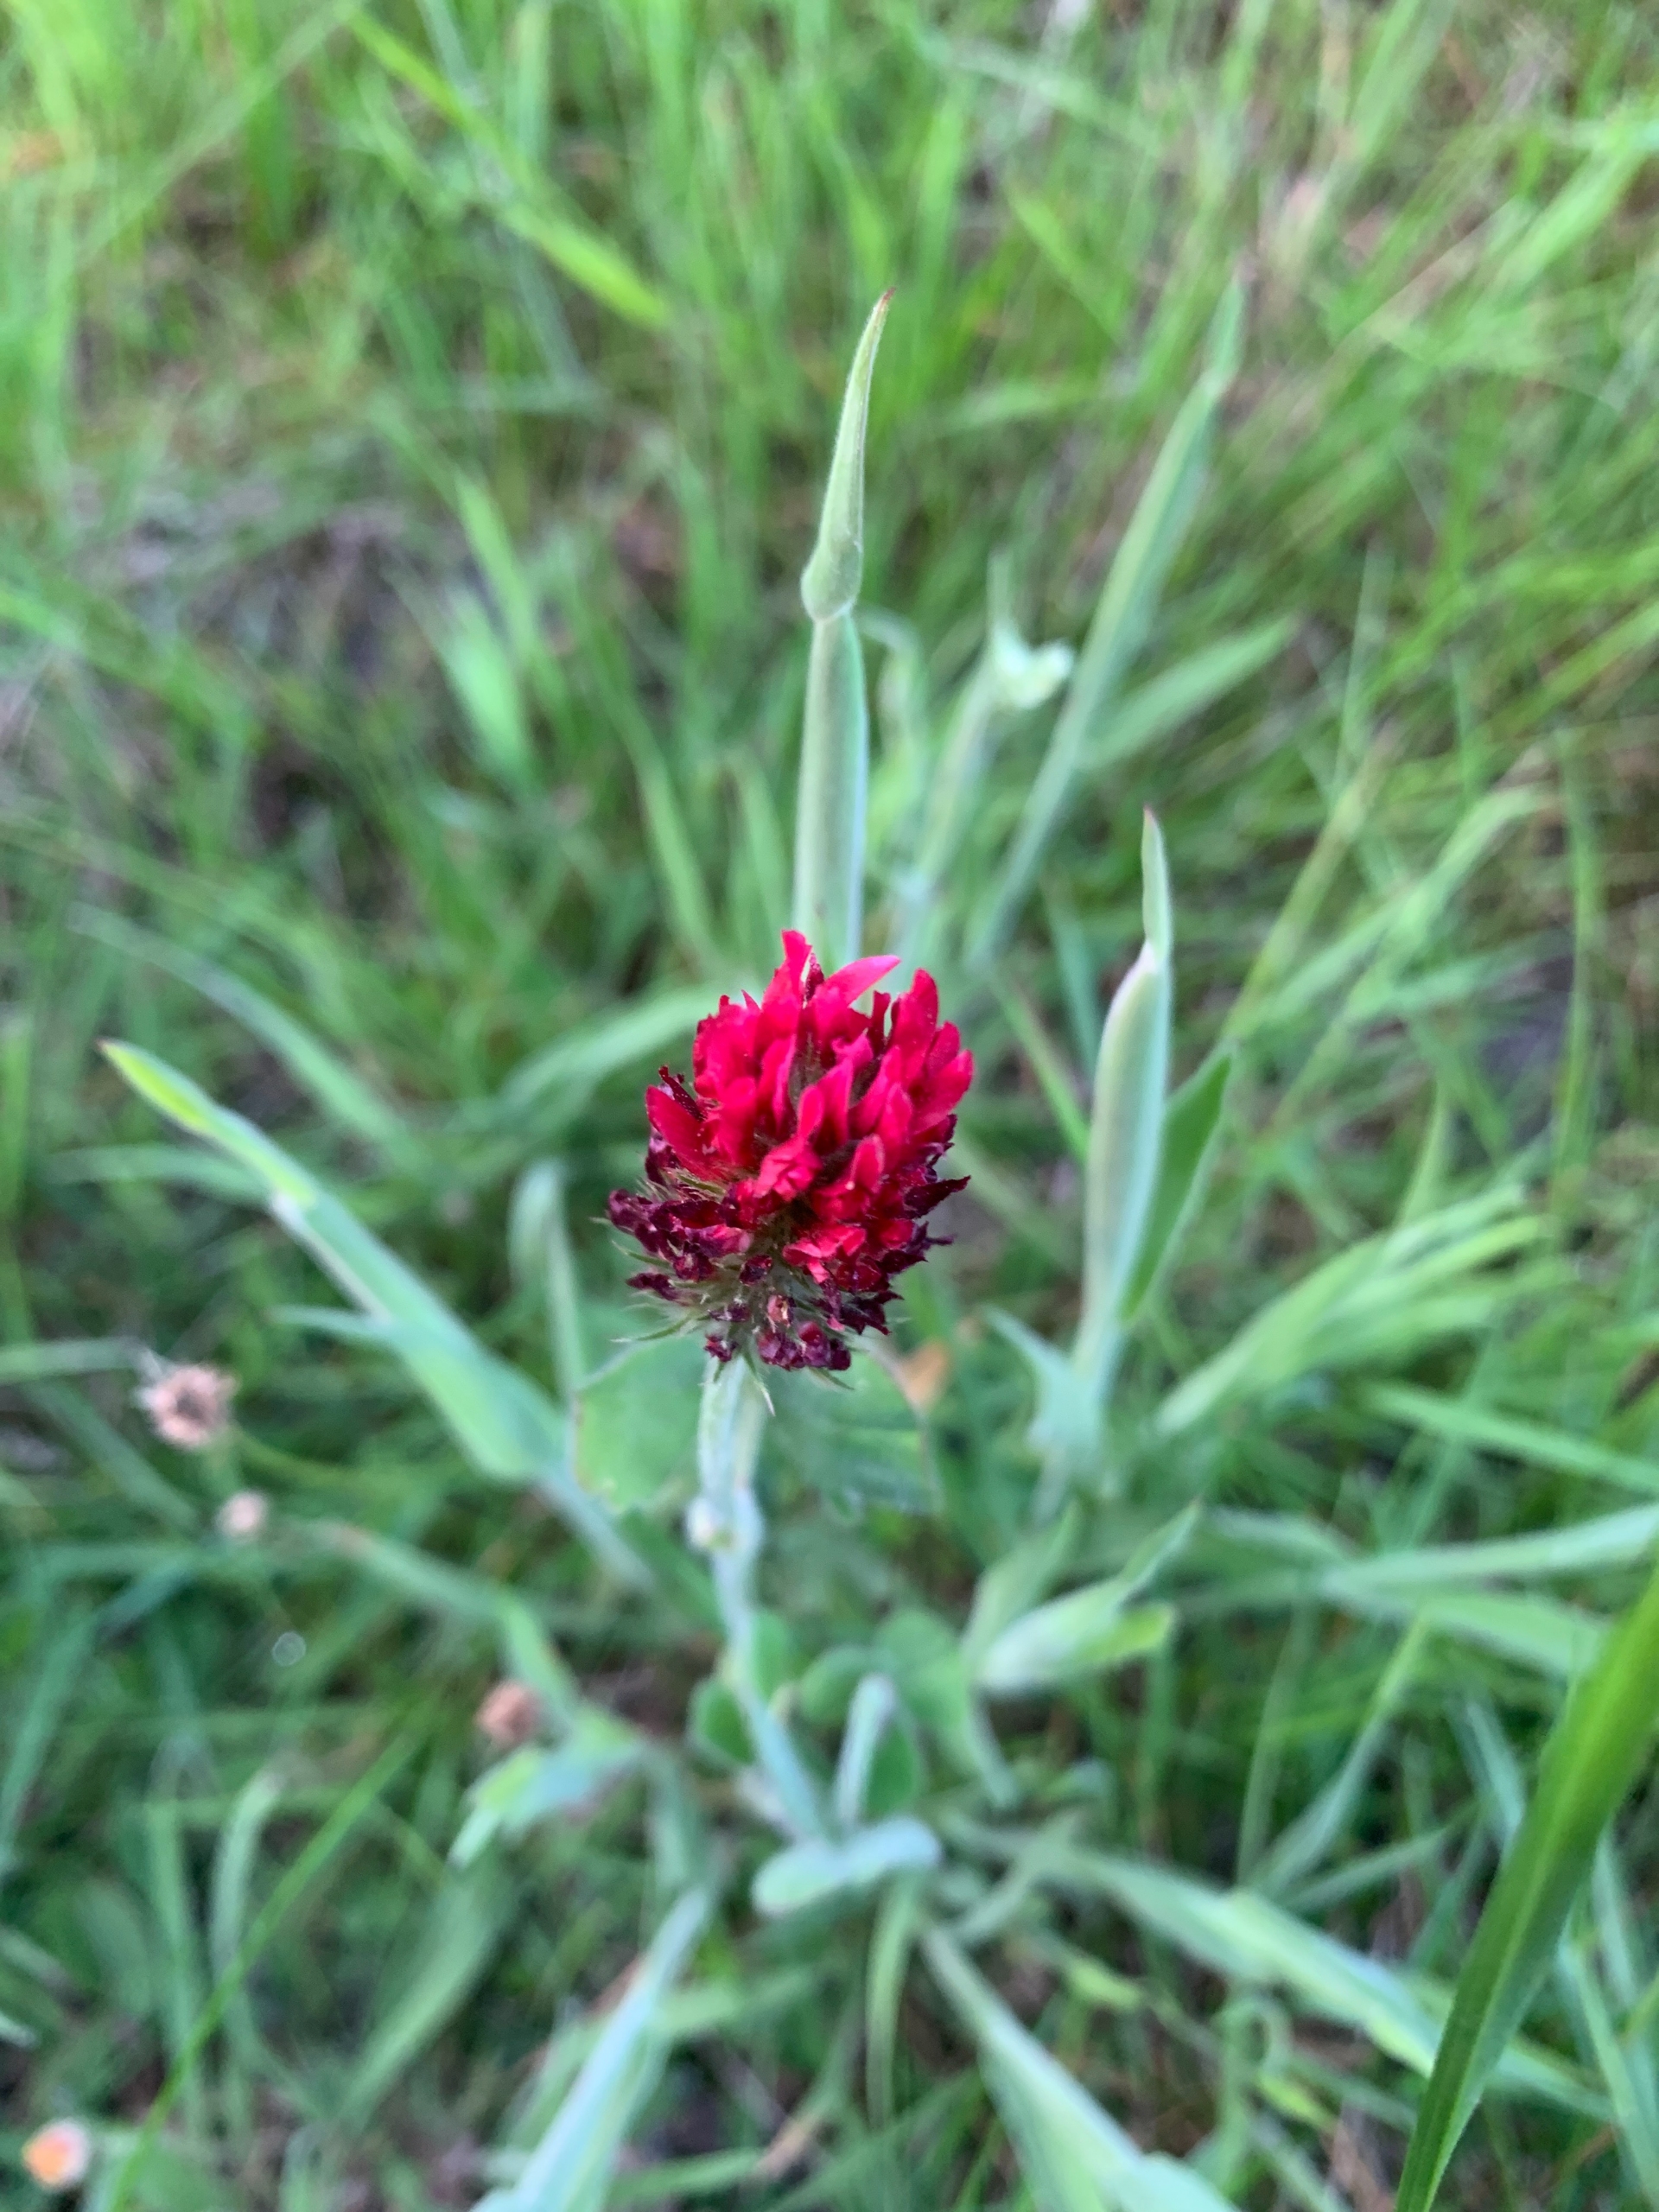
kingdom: Plantae
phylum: Tracheophyta
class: Magnoliopsida
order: Fabales
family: Fabaceae
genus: Trifolium
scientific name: Trifolium incarnatum
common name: Blod-kløver
